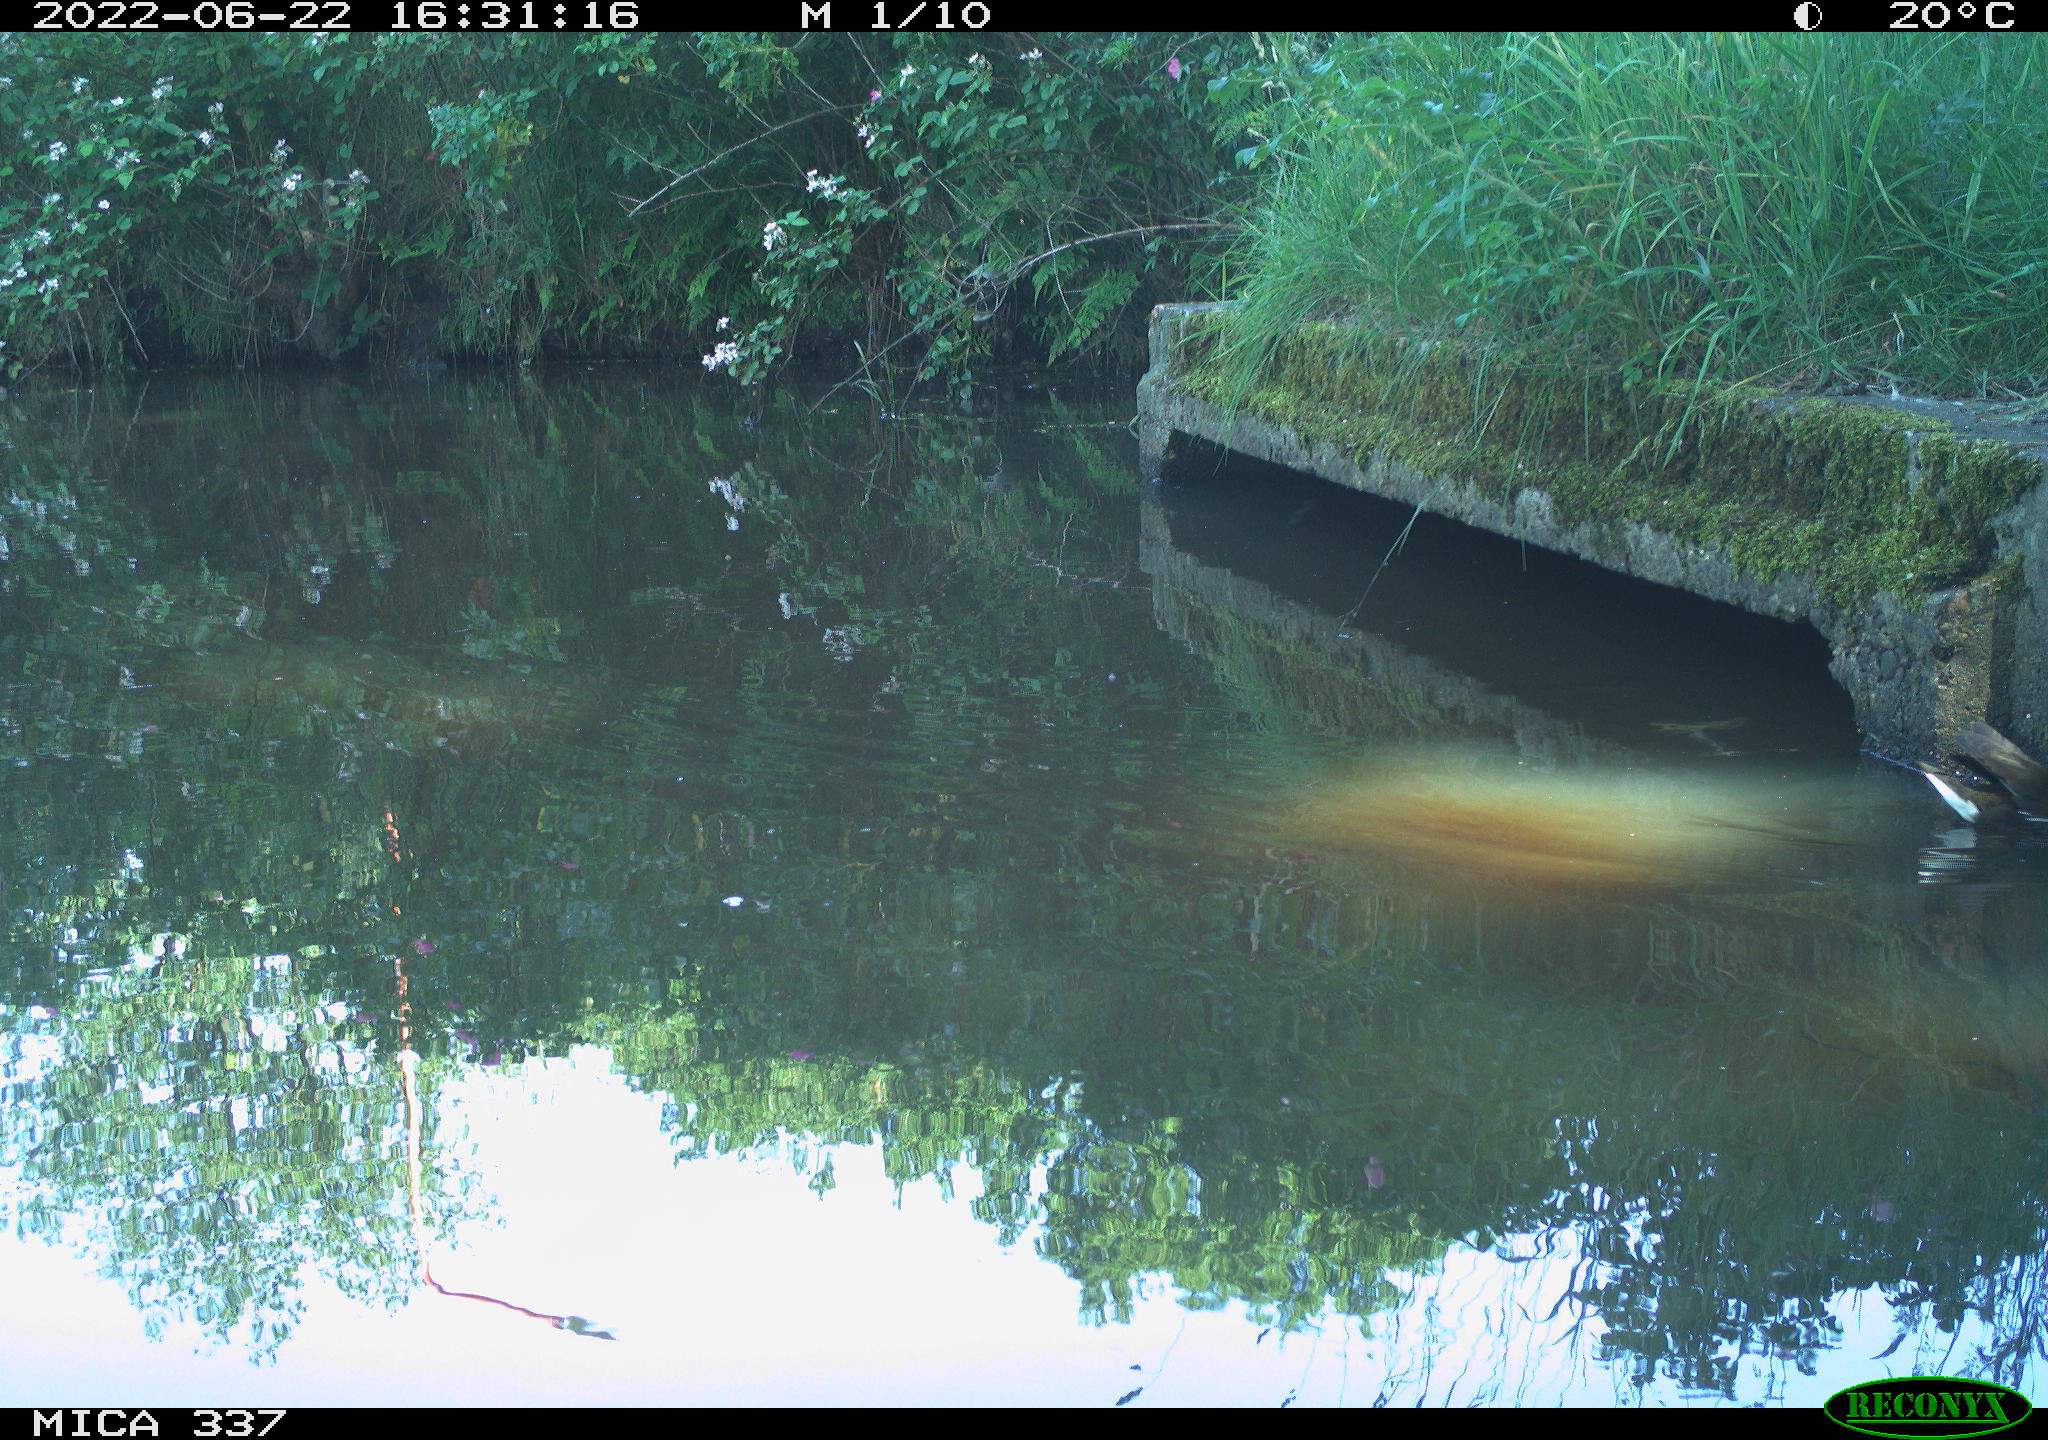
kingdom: Animalia
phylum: Chordata
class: Aves
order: Gruiformes
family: Rallidae
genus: Gallinula
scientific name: Gallinula chloropus
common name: Common moorhen
